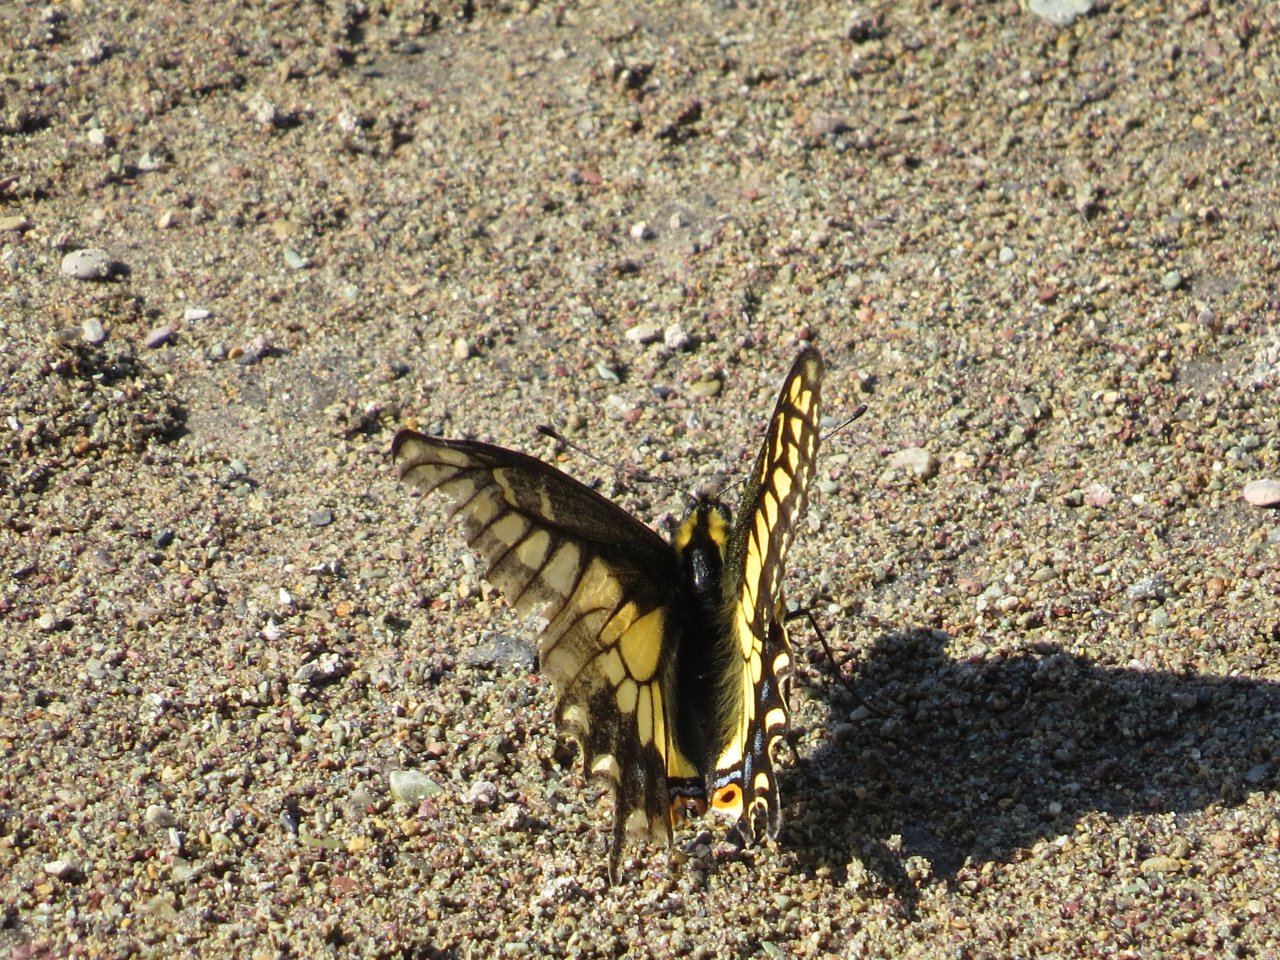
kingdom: Animalia
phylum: Arthropoda
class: Insecta
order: Lepidoptera
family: Papilionidae
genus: Papilio
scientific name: Papilio zelicaon
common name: Anise Swallowtail
